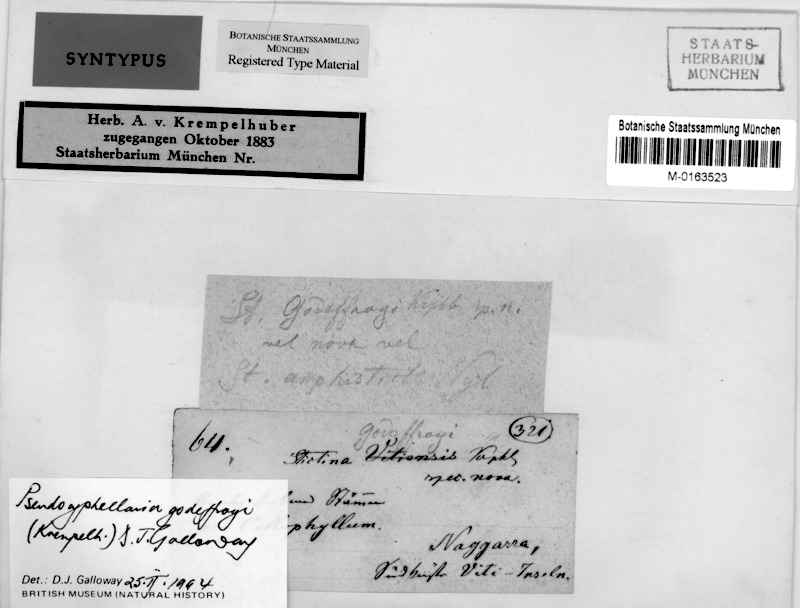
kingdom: Fungi
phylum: Ascomycota
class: Lecanoromycetes
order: Peltigerales
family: Lobariaceae
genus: Pseudocyphellaria
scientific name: Pseudocyphellaria
